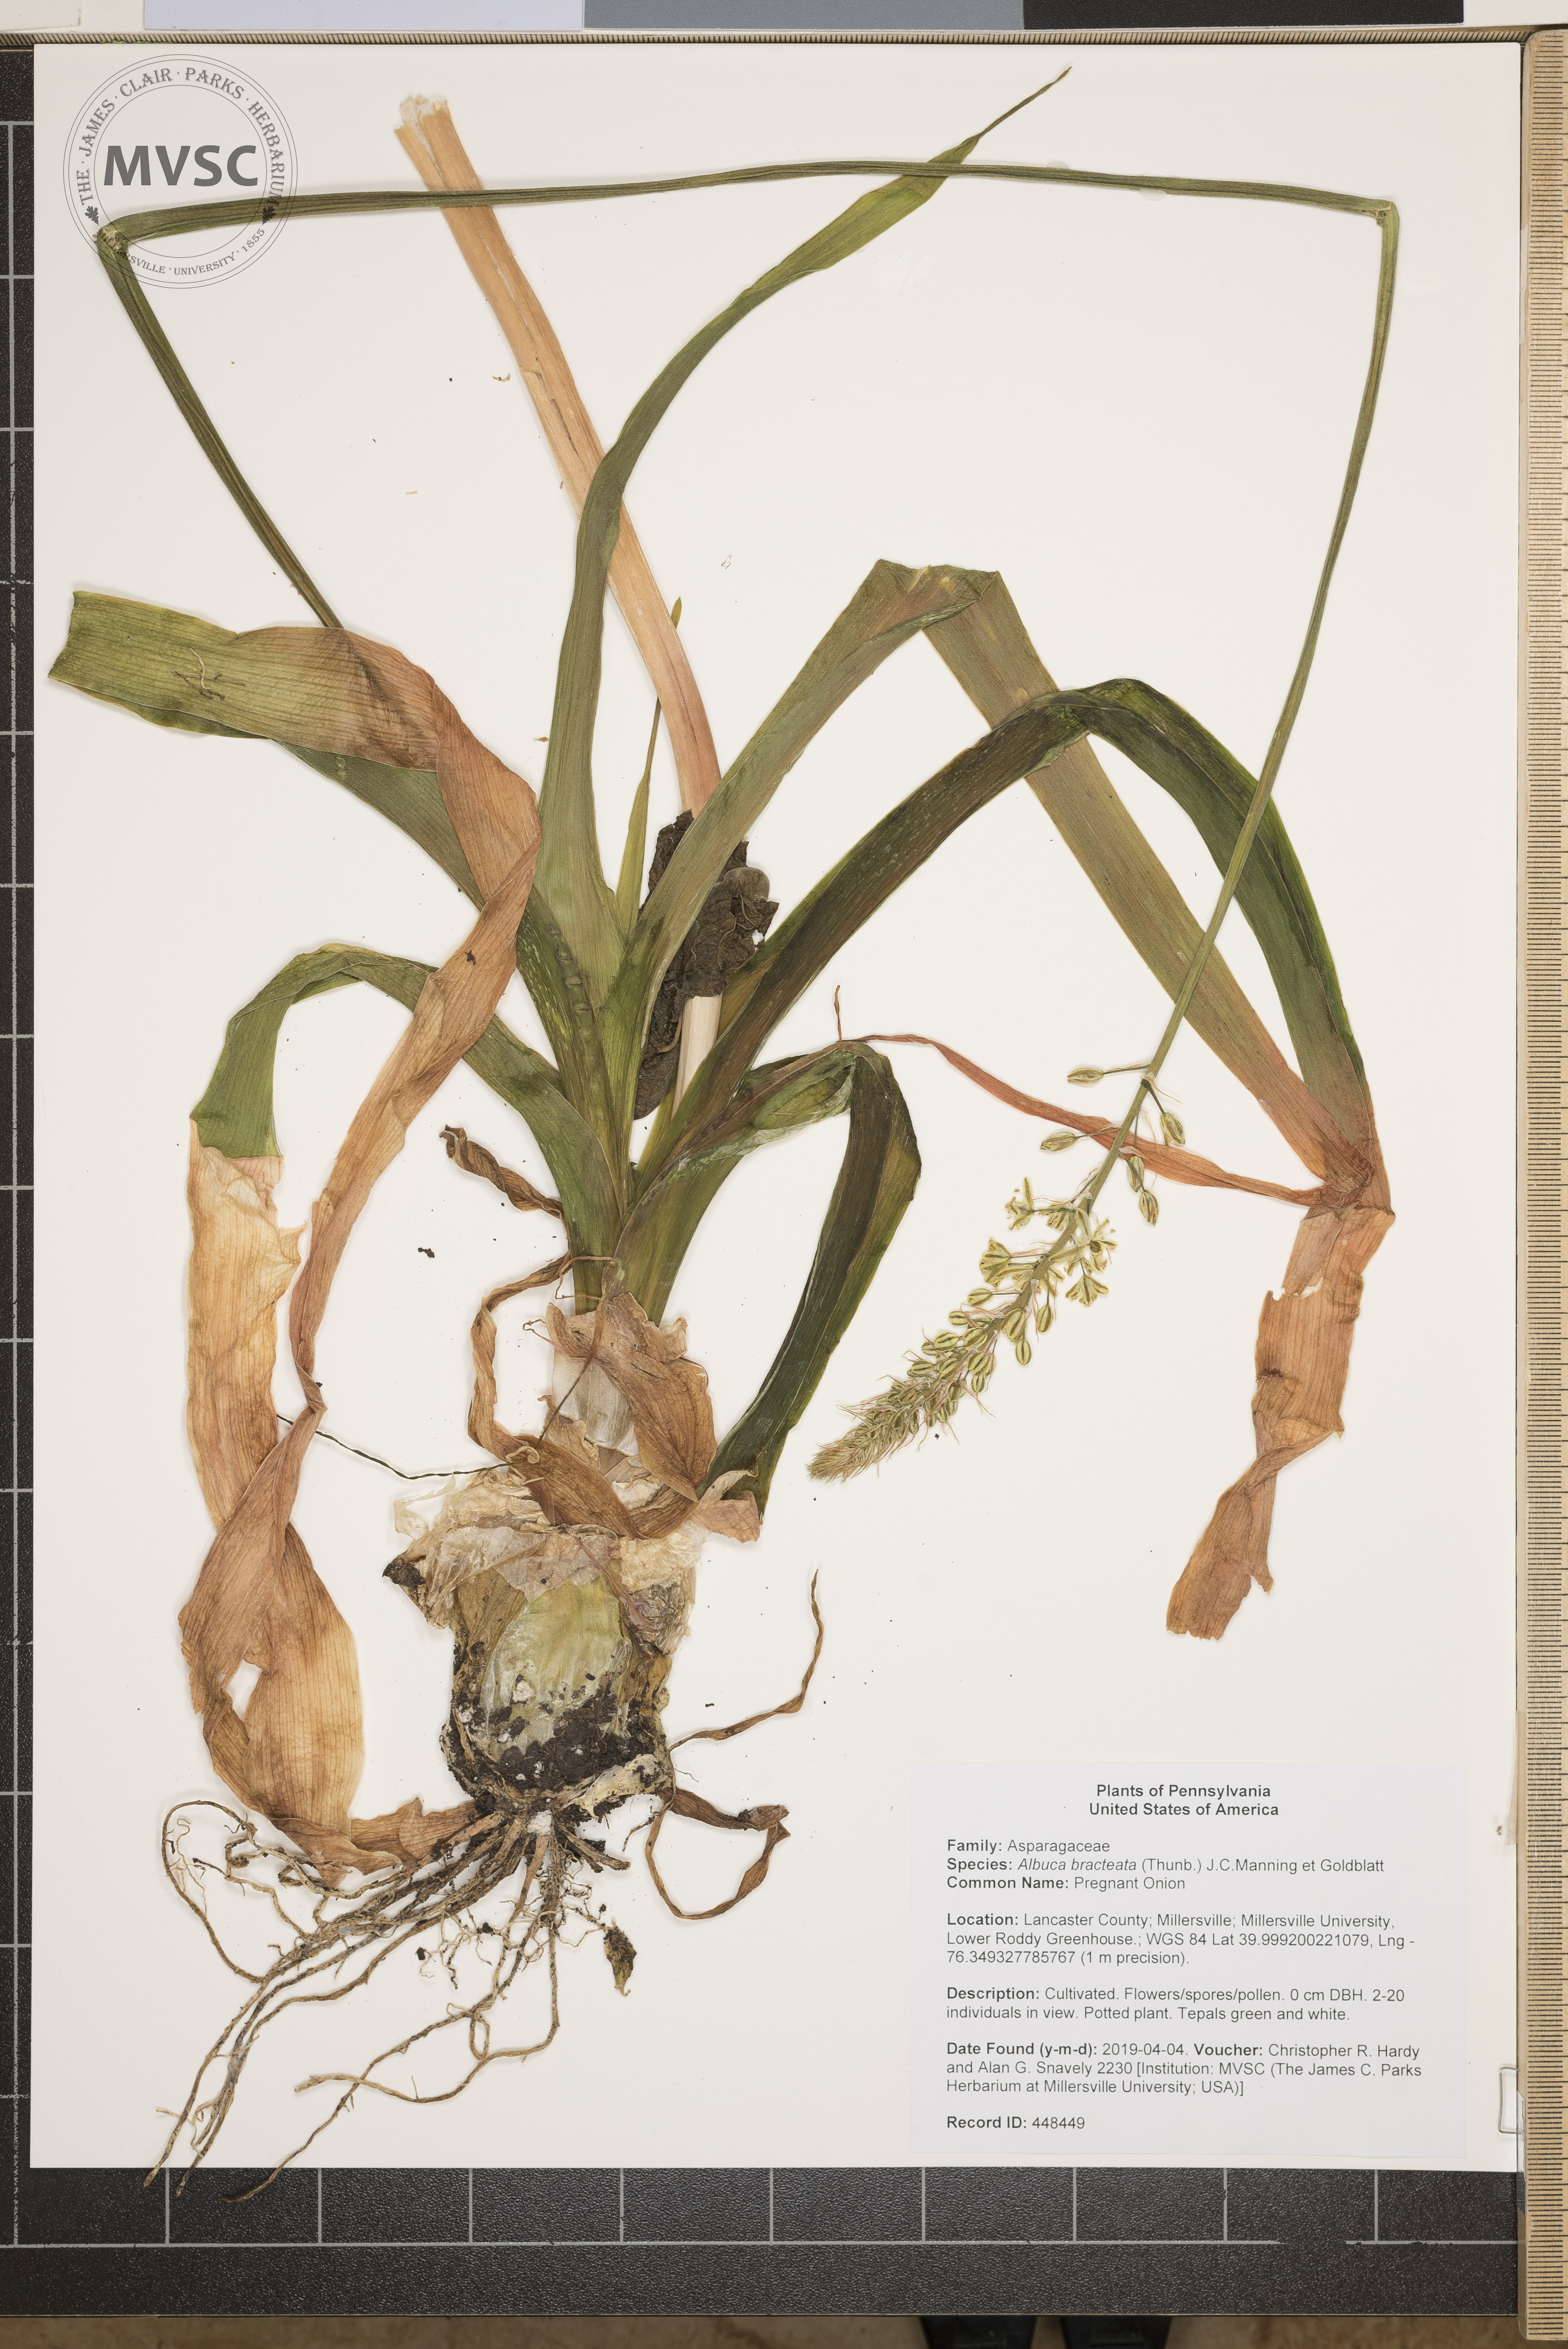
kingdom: Plantae
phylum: Tracheophyta
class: Liliopsida
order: Asparagales
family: Asparagaceae
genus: Albuca
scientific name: Albuca bracteata
